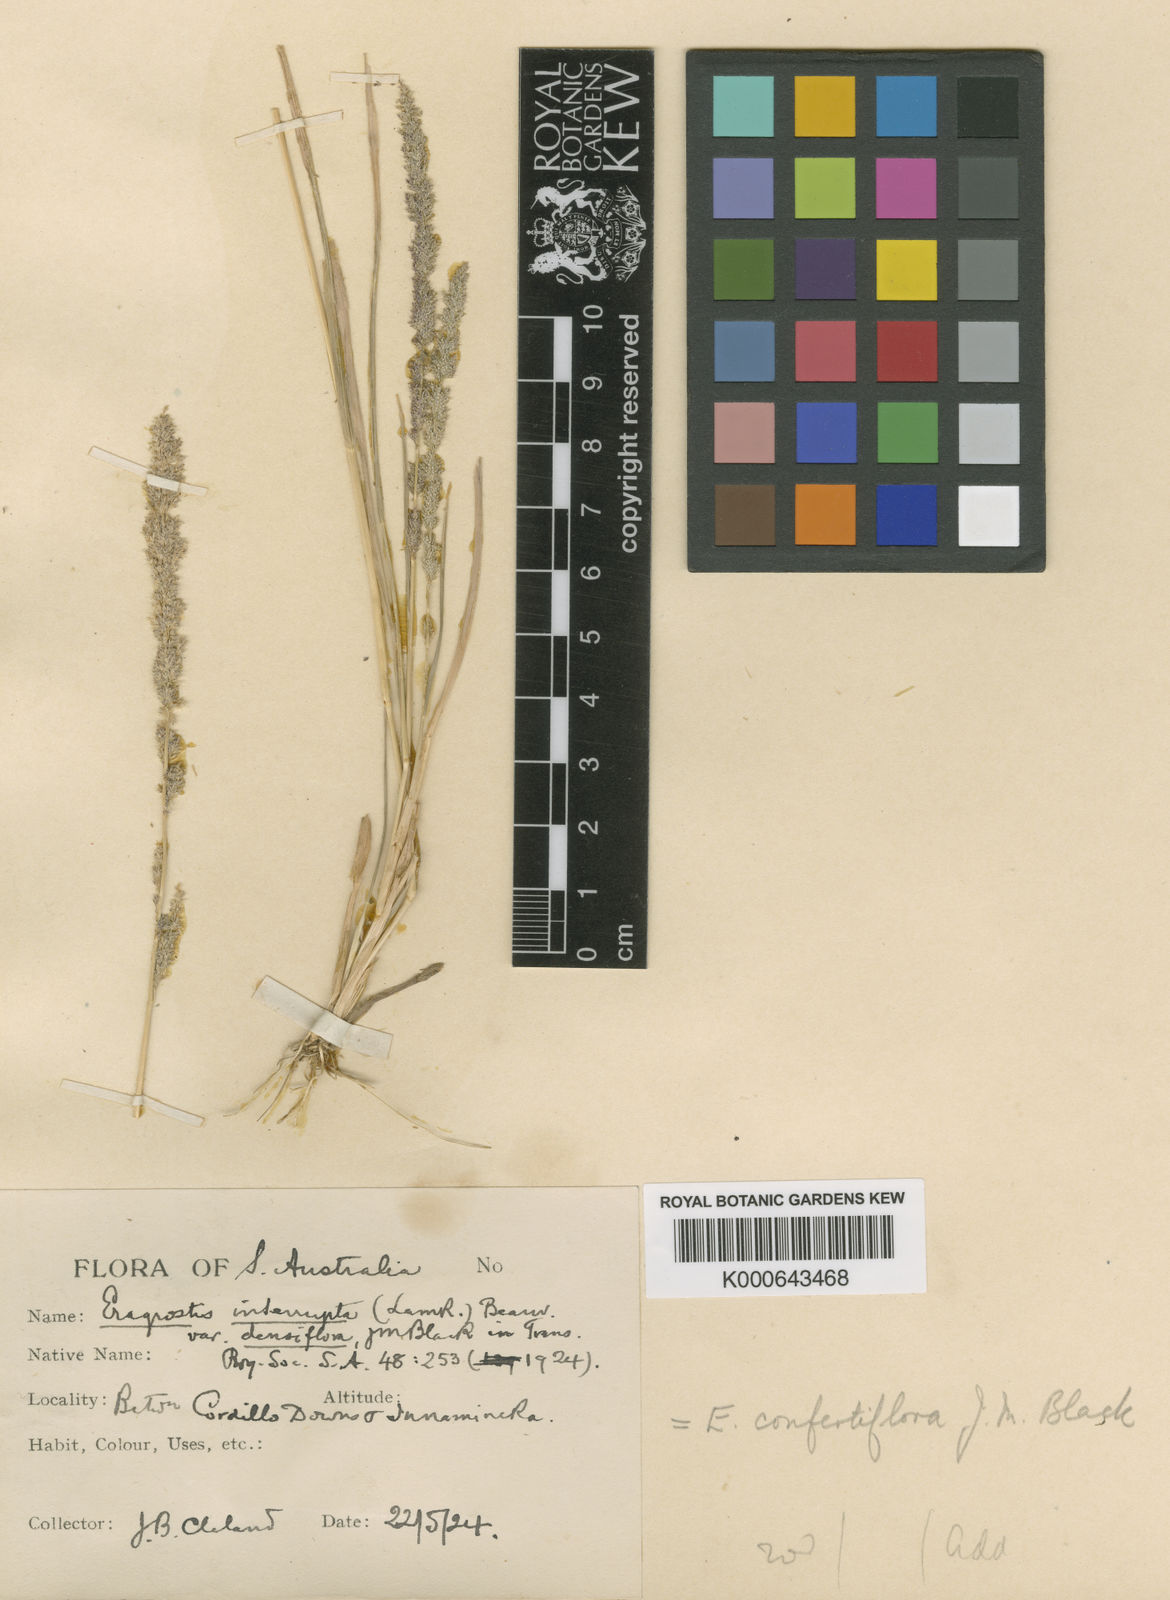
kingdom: Plantae
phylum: Tracheophyta
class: Liliopsida
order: Poales
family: Poaceae
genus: Eragrostis
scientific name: Eragrostis confertiflora
